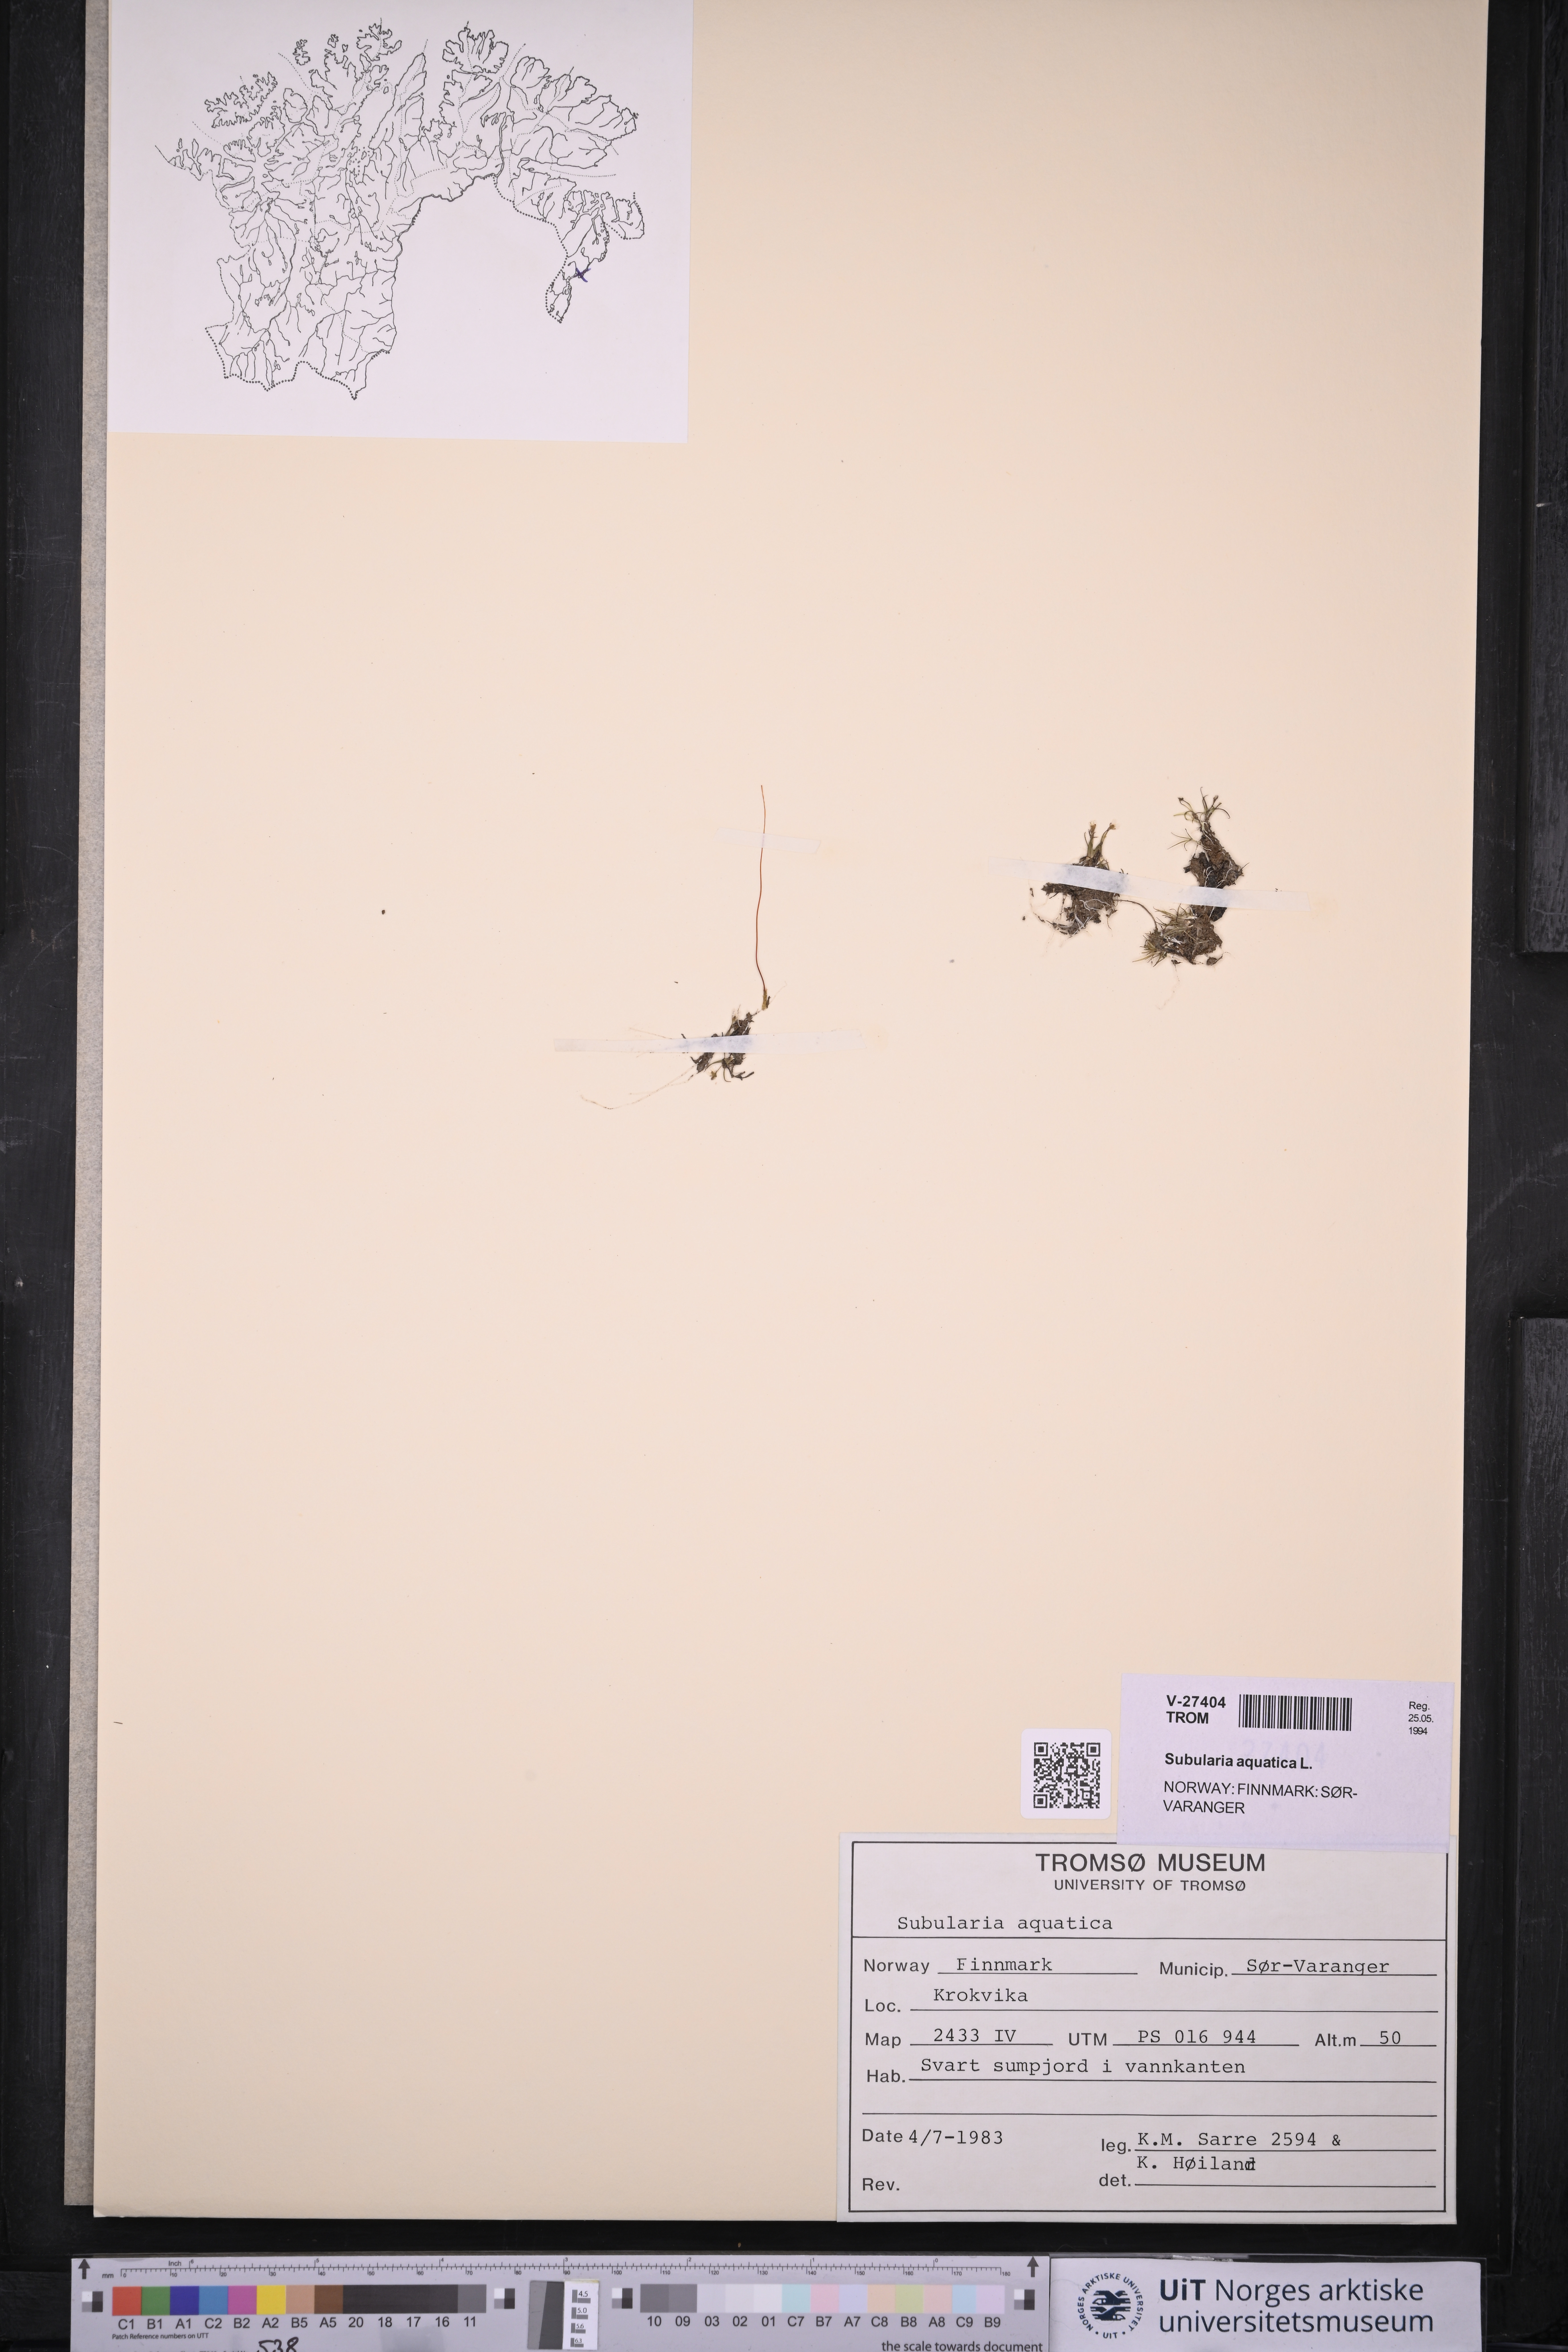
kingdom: Plantae
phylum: Tracheophyta
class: Magnoliopsida
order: Brassicales
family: Brassicaceae
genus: Subularia
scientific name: Subularia aquatica
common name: Awlwort
